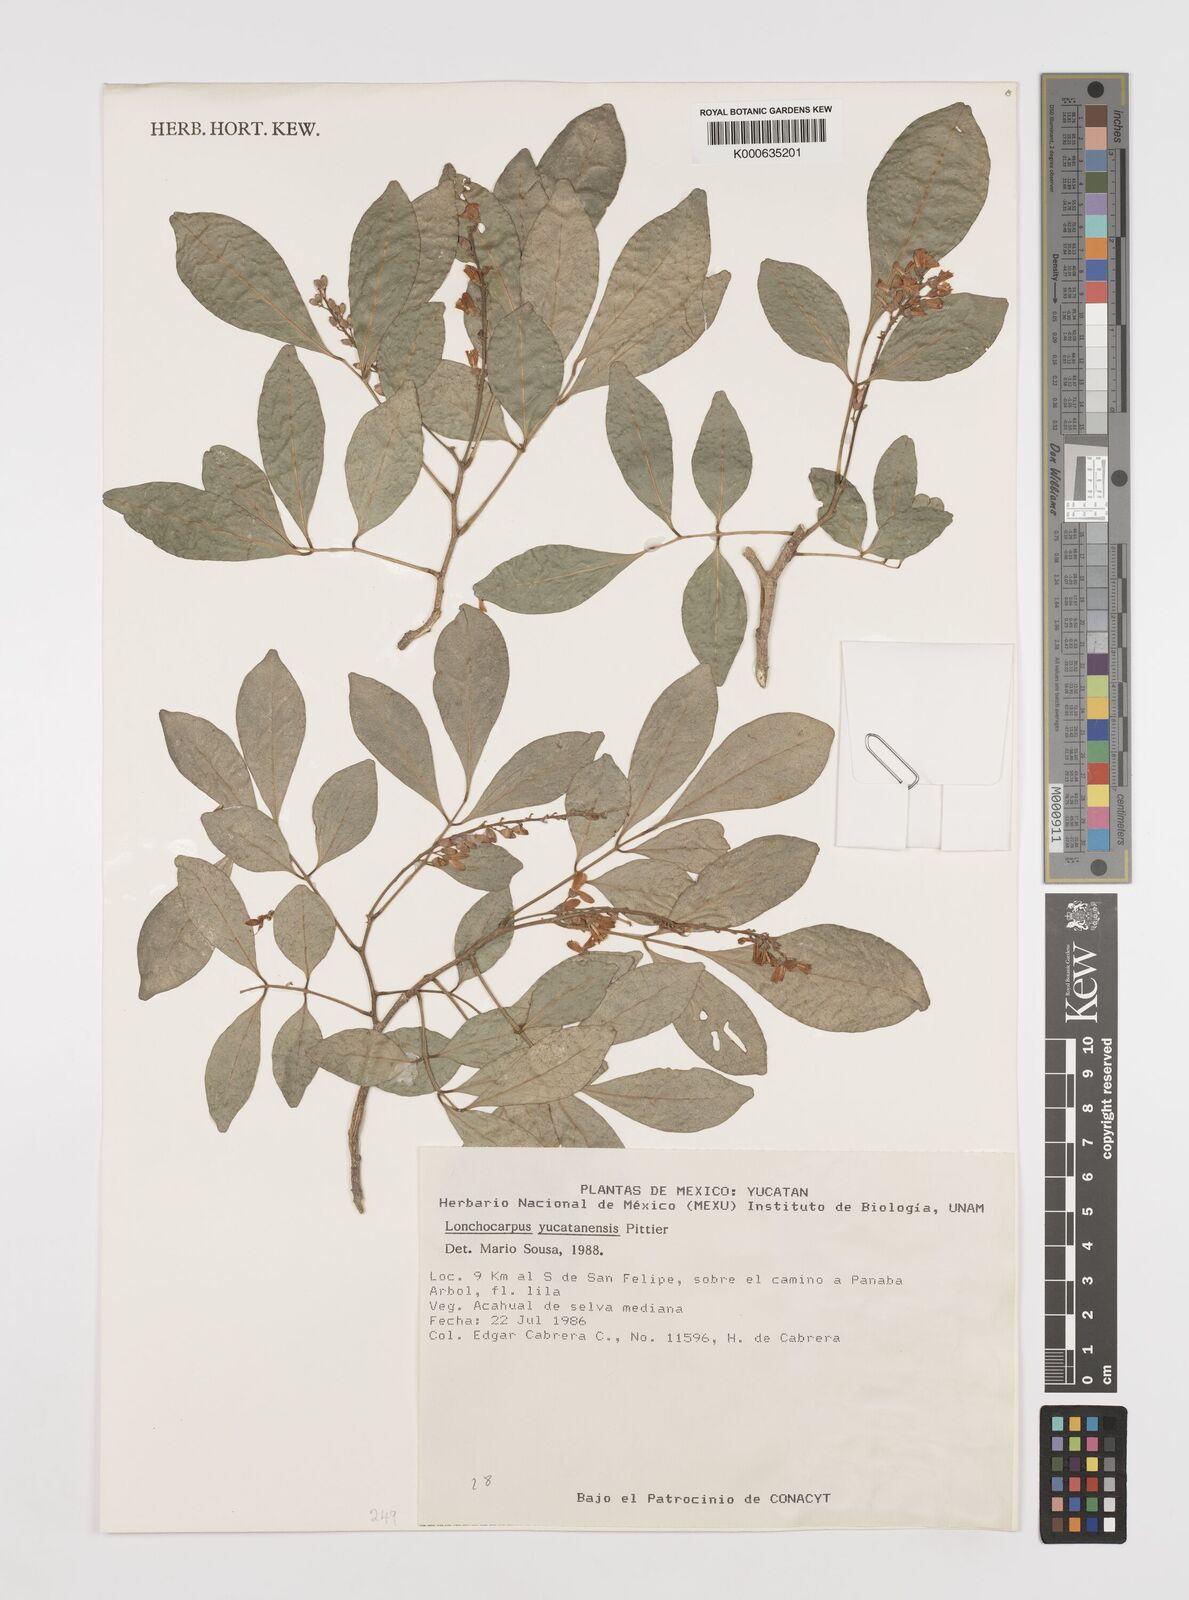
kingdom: Plantae
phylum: Tracheophyta
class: Magnoliopsida
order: Fabales
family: Fabaceae
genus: Lonchocarpus
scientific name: Lonchocarpus yucatanensis
